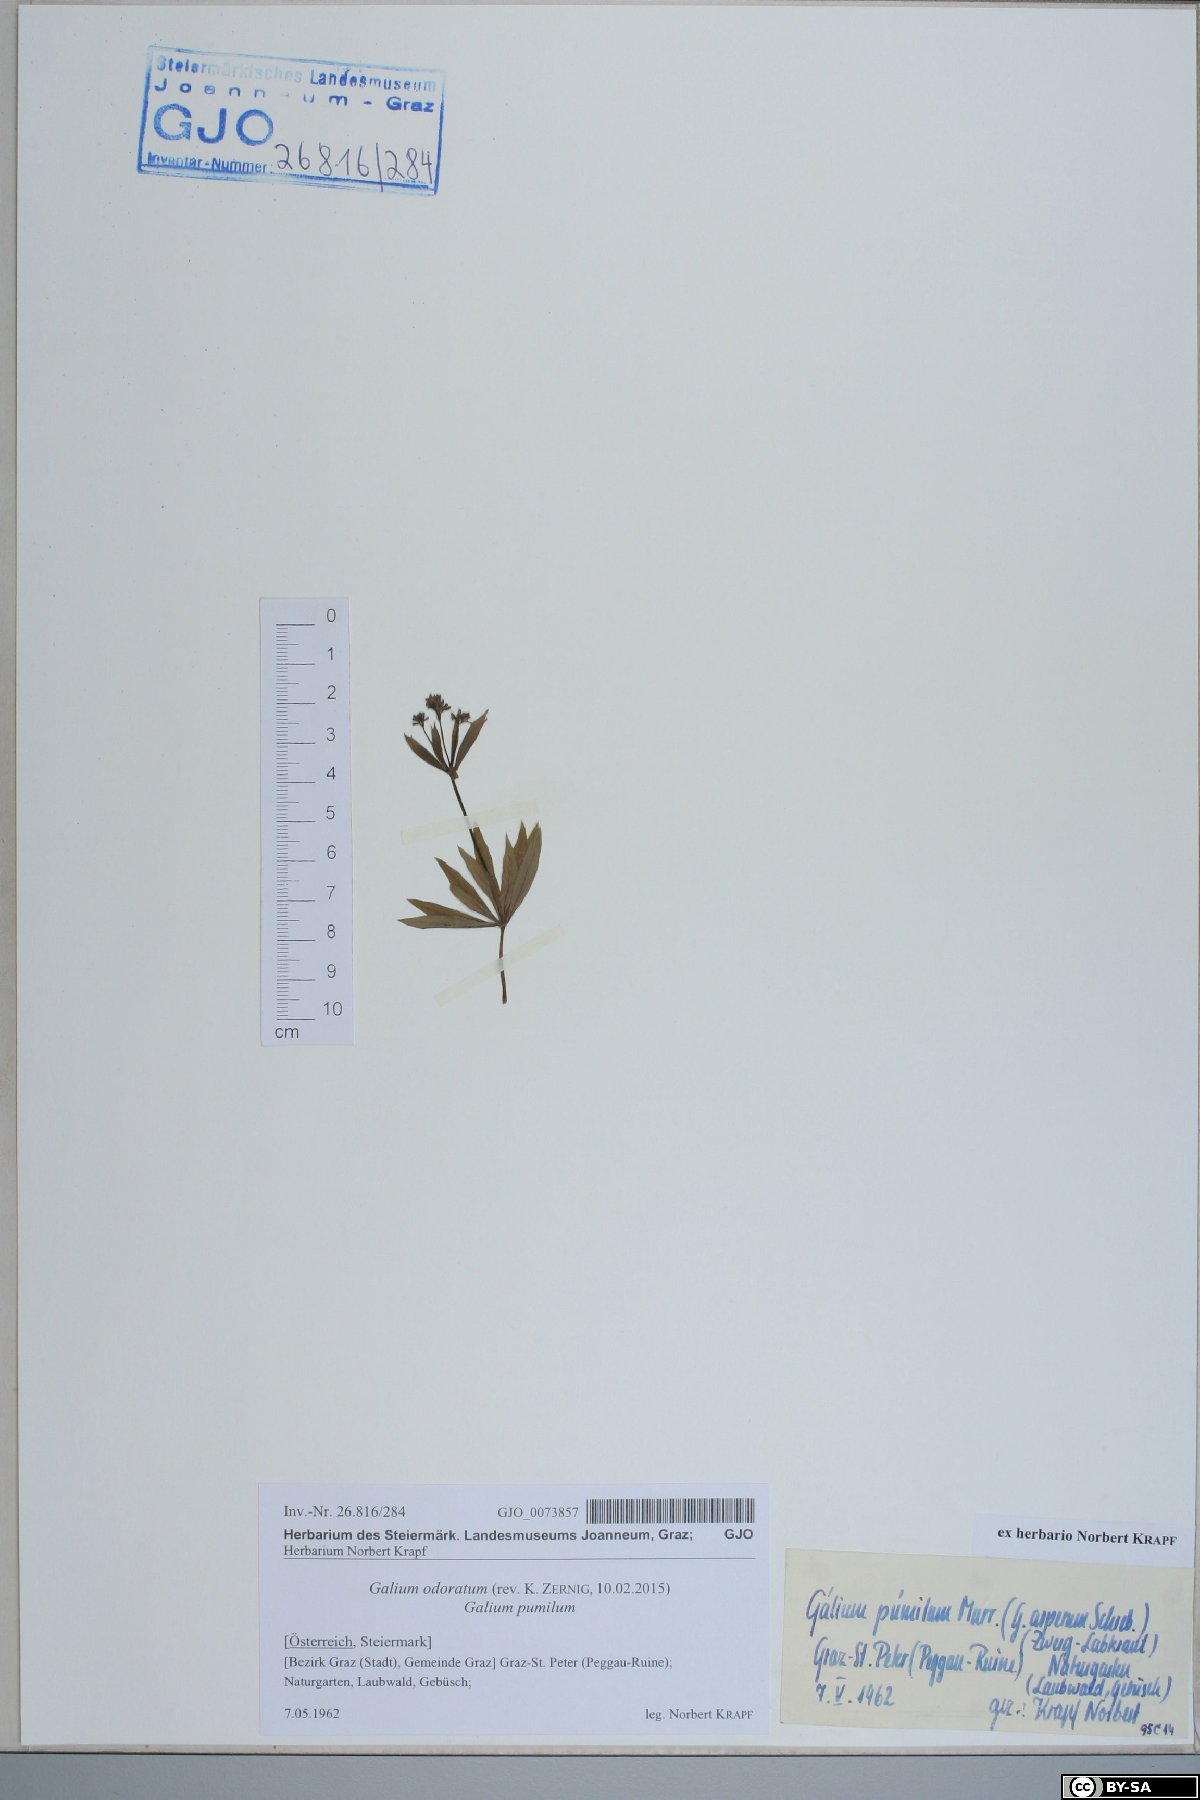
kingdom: Plantae
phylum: Tracheophyta
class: Magnoliopsida
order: Gentianales
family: Rubiaceae
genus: Galium
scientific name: Galium odoratum
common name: Sweet woodruff
